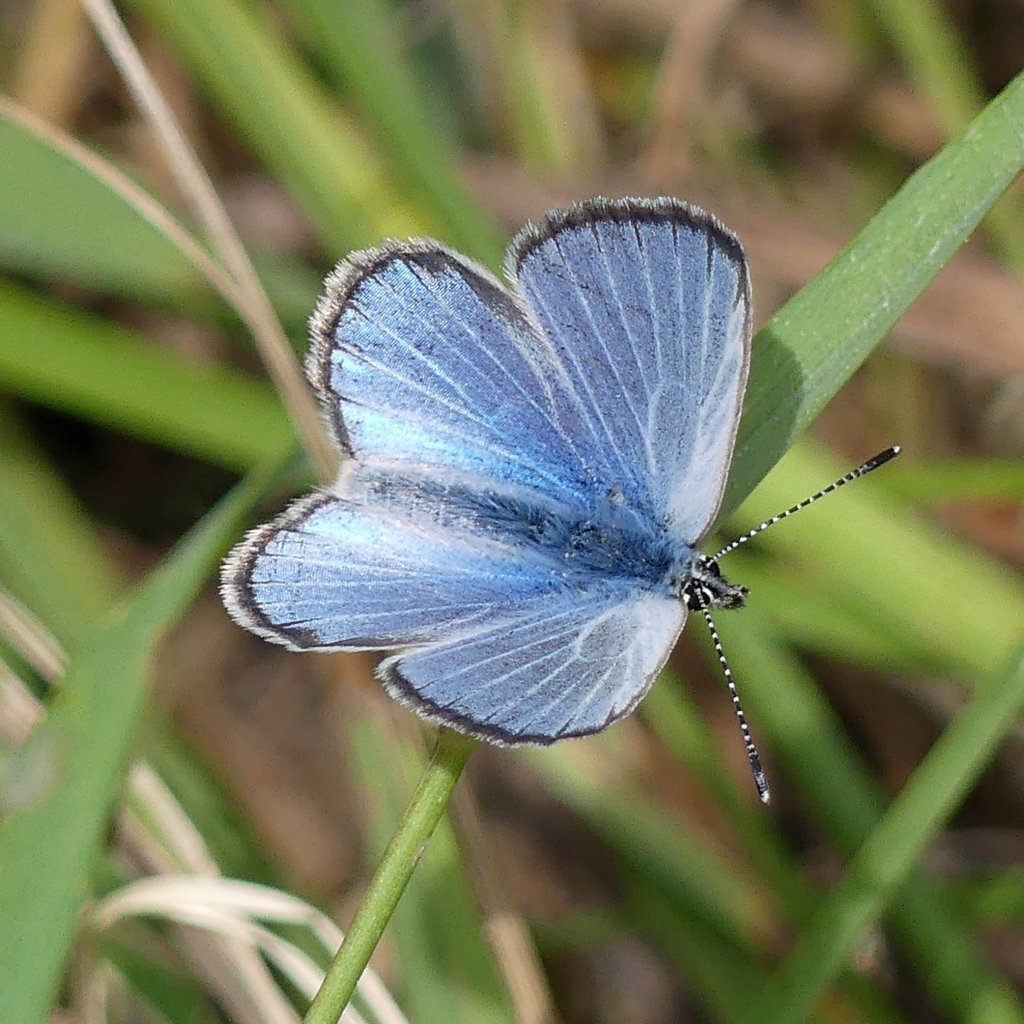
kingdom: Animalia
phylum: Arthropoda
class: Insecta
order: Lepidoptera
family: Lycaenidae
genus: Glaucopsyche
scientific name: Glaucopsyche lygdamus
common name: Silvery Blue
